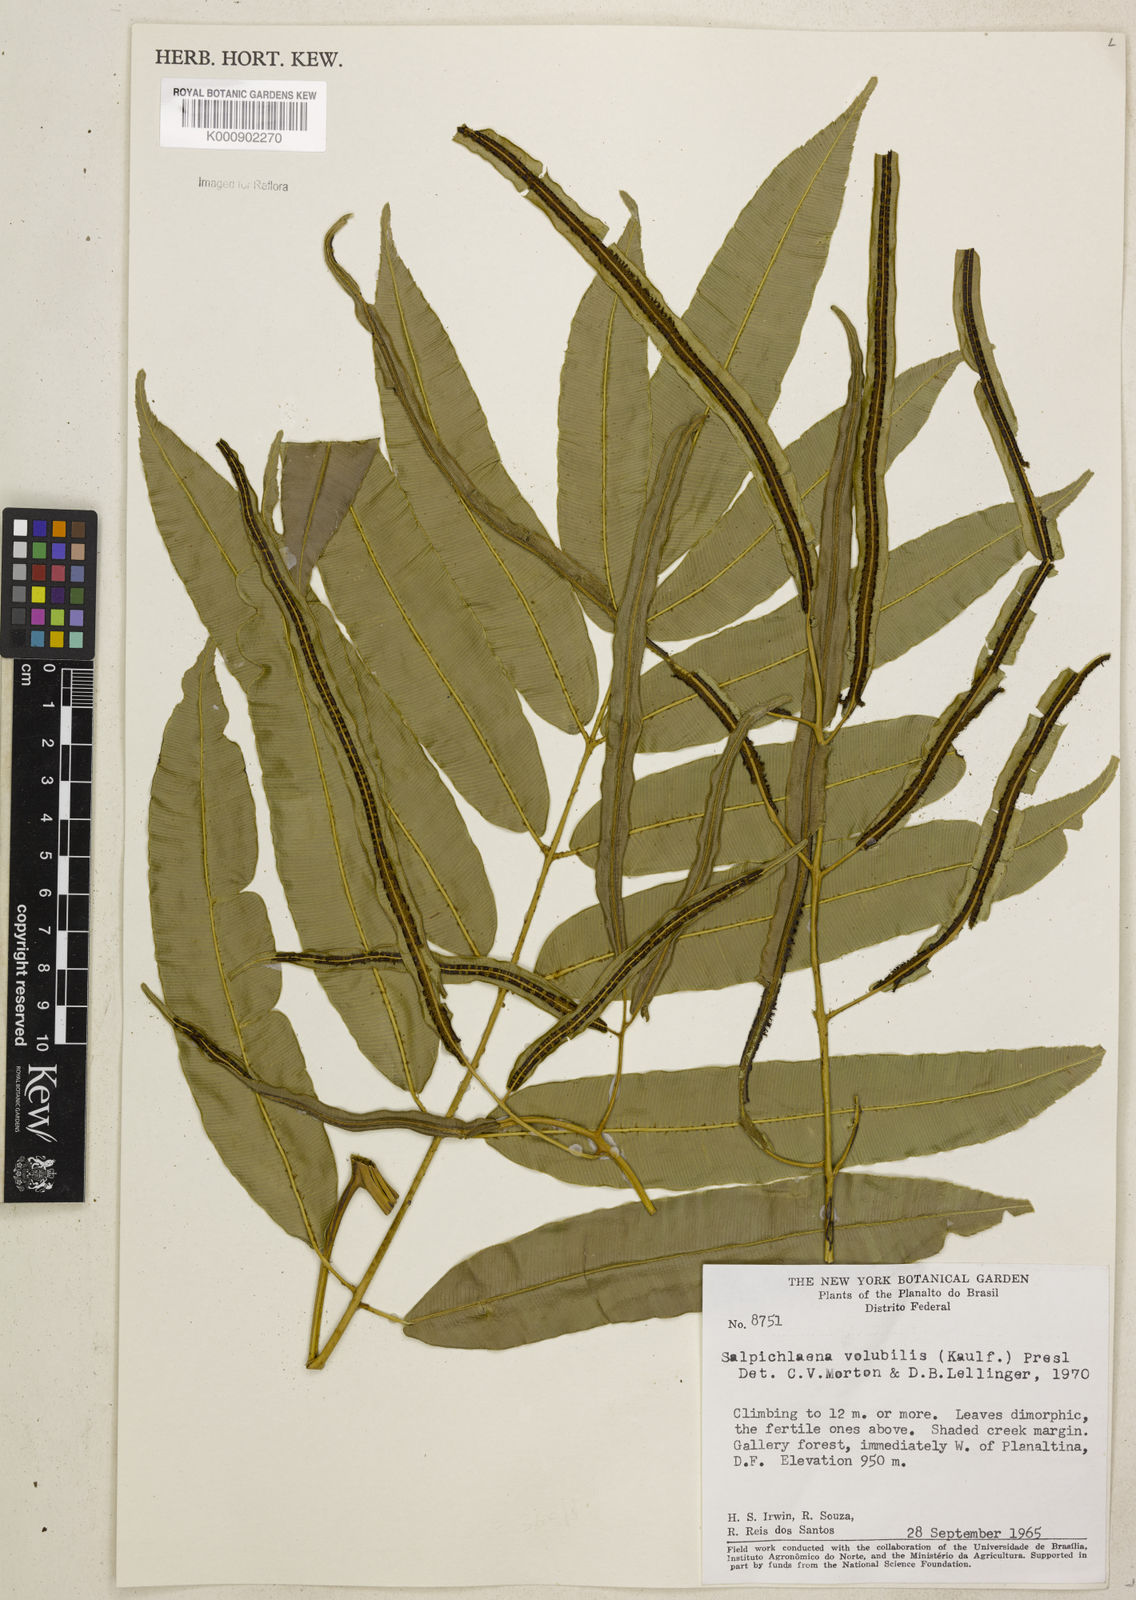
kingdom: Plantae
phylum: Tracheophyta
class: Polypodiopsida
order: Polypodiales
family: Blechnaceae
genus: Salpichlaena
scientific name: Salpichlaena volubilis
